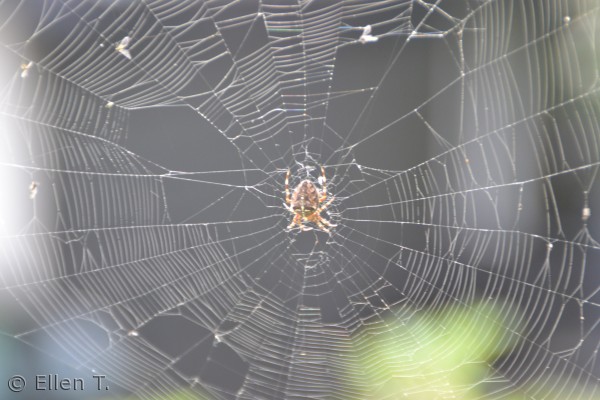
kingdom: Animalia
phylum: Arthropoda
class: Arachnida
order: Araneae
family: Araneidae
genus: Araneus
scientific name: Araneus diadematus
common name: Korsedderkop
